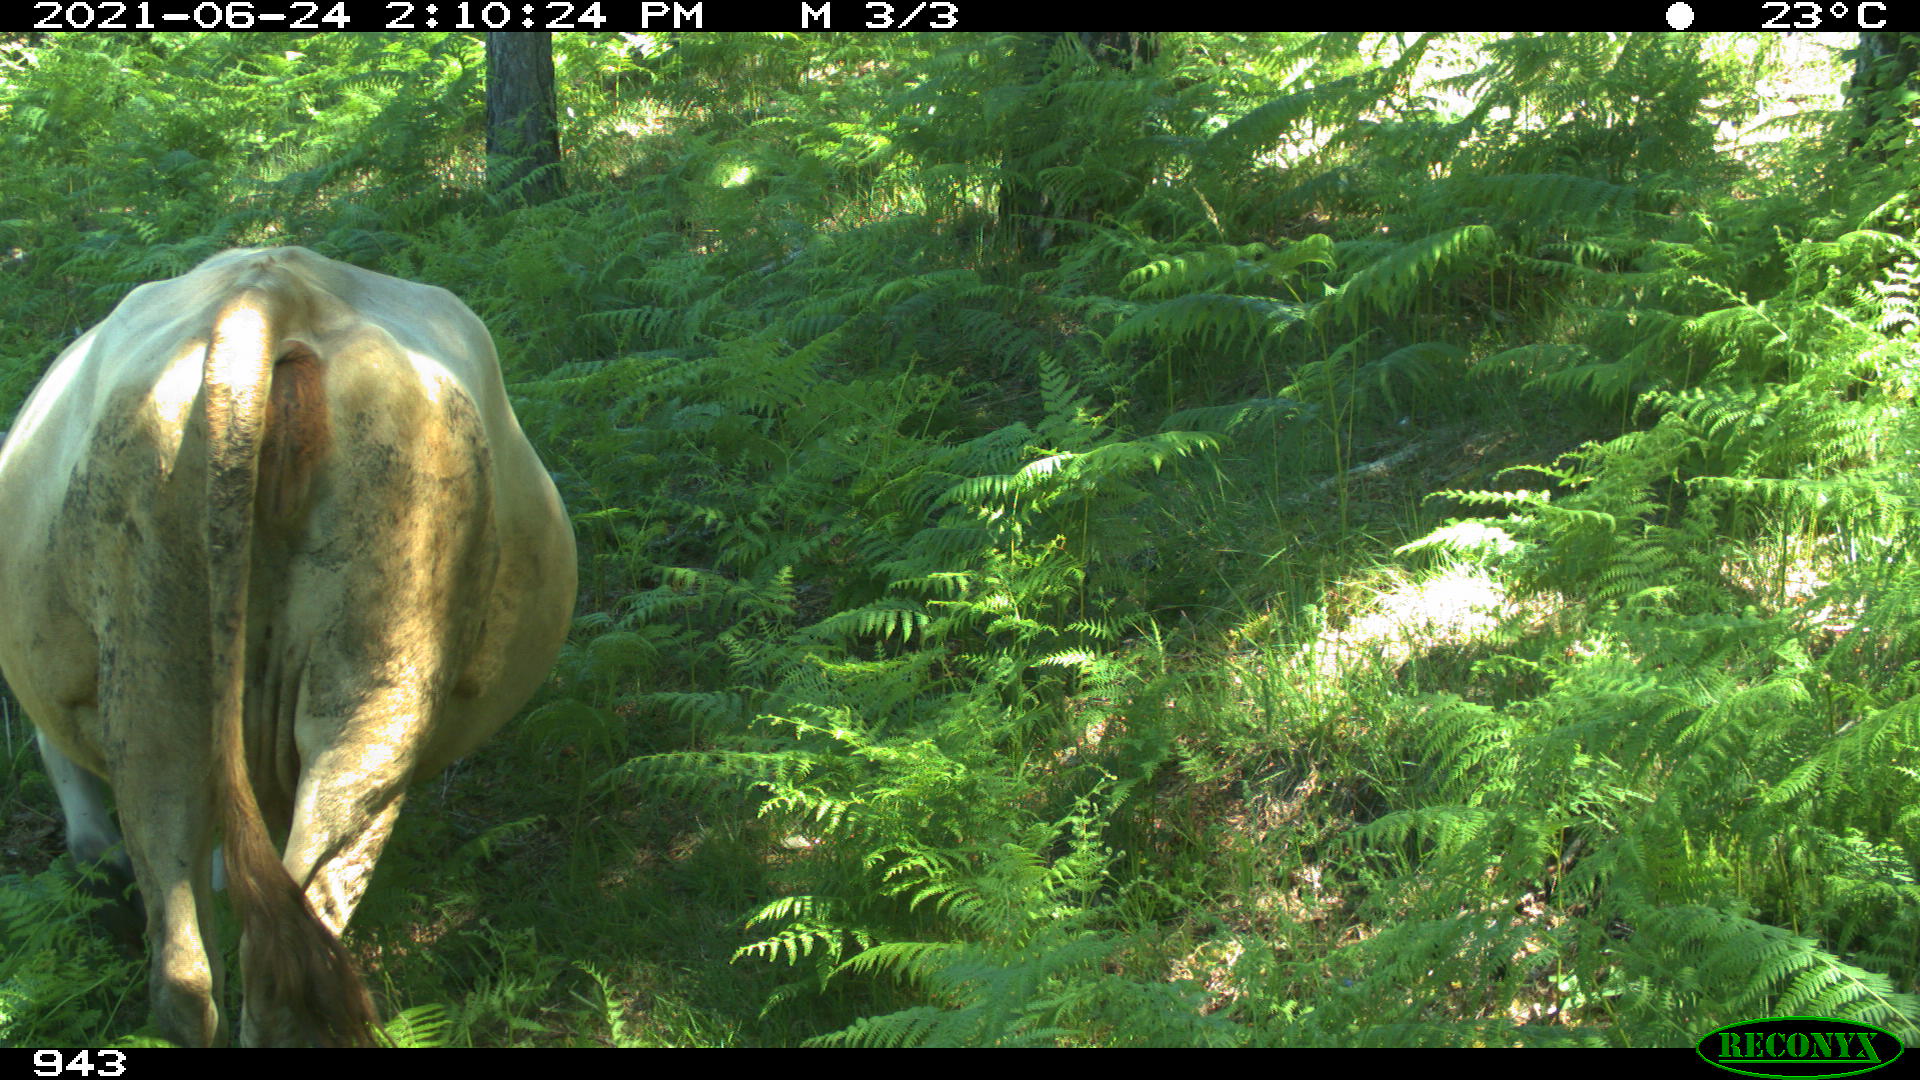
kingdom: Animalia
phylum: Chordata
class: Mammalia
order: Artiodactyla
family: Bovidae
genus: Bos
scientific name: Bos taurus
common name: Domesticated cattle
